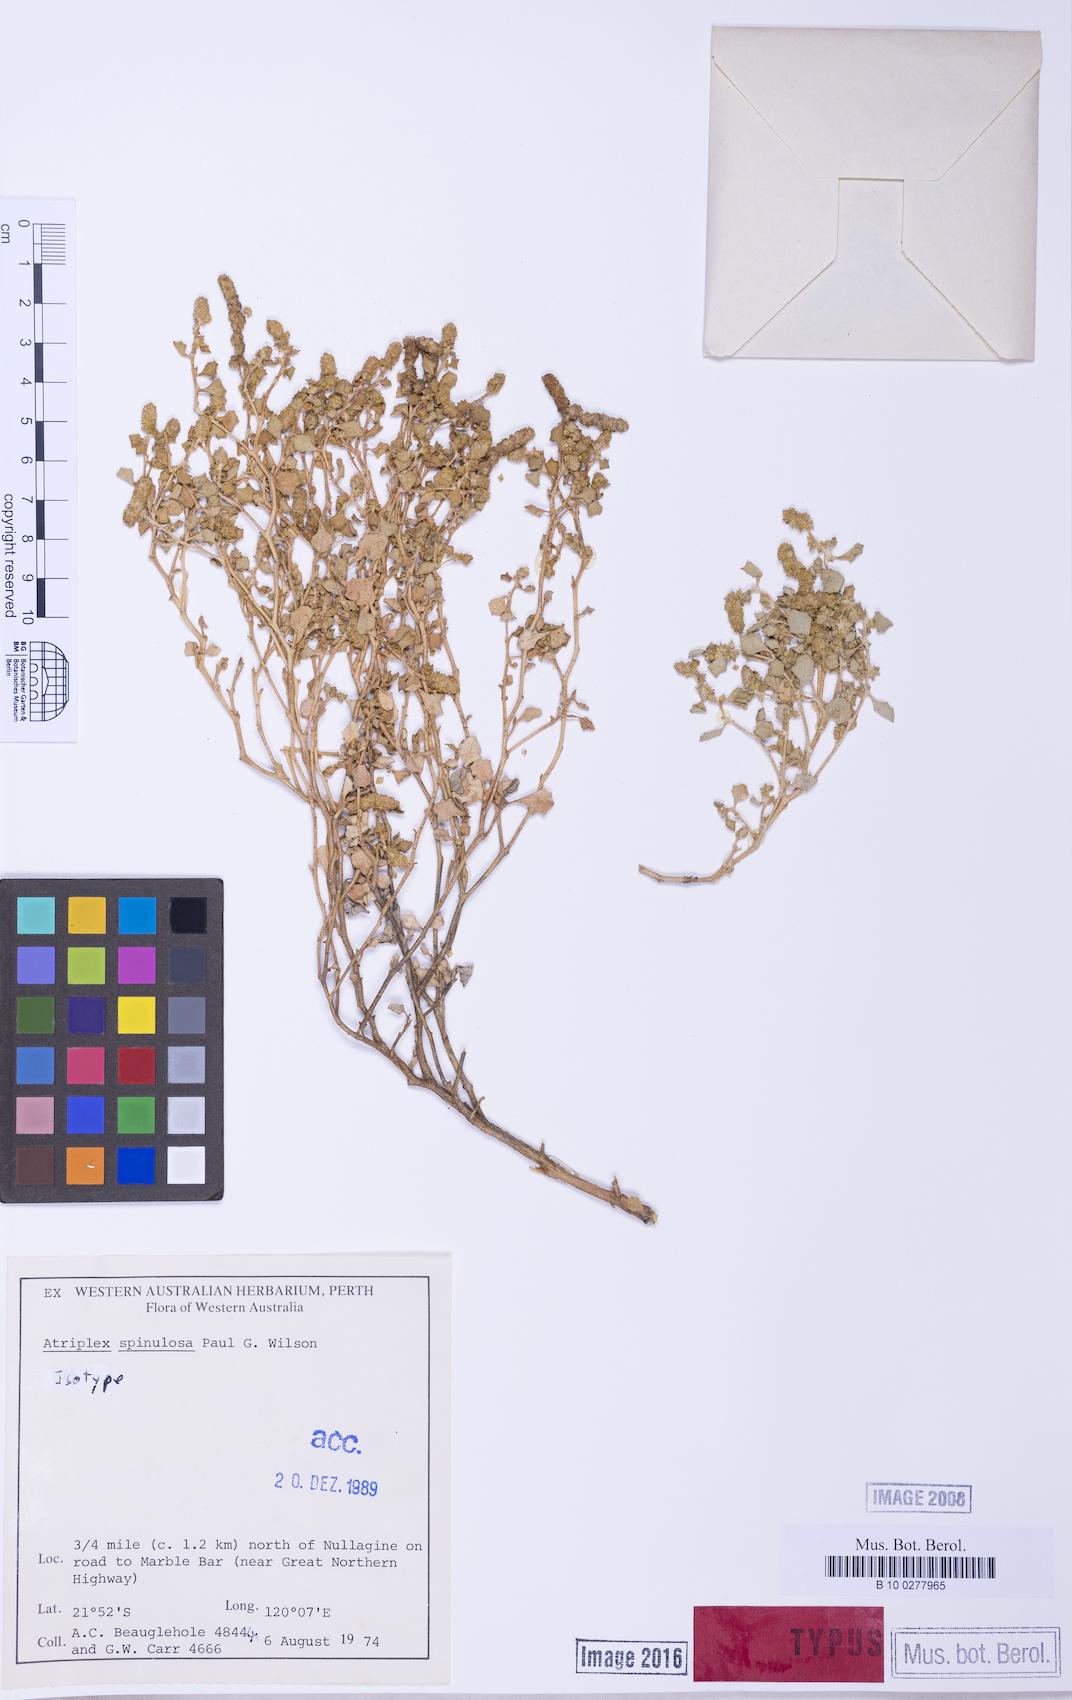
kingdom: Plantae
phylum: Tracheophyta
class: Magnoliopsida
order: Caryophyllales
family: Amaranthaceae
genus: Atriplex
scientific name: Atriplex spinulosa
